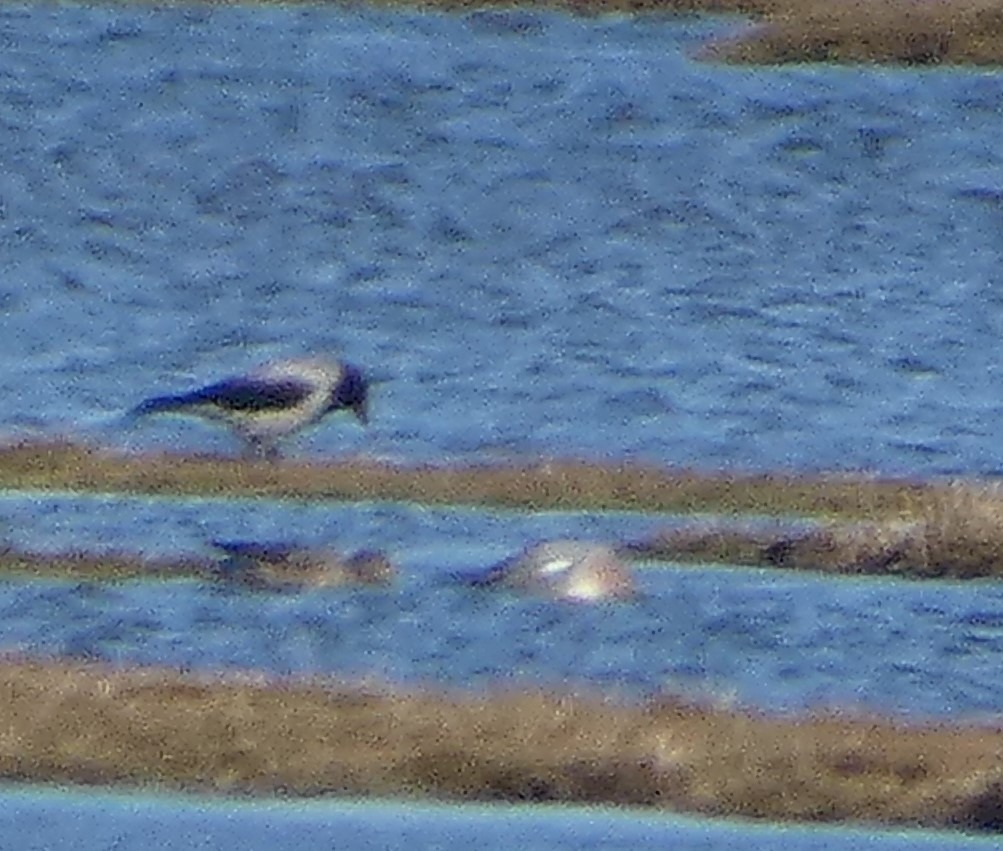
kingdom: Animalia
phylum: Chordata
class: Aves
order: Passeriformes
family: Corvidae
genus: Corvus
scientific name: Corvus cornix
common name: Gråkrage
